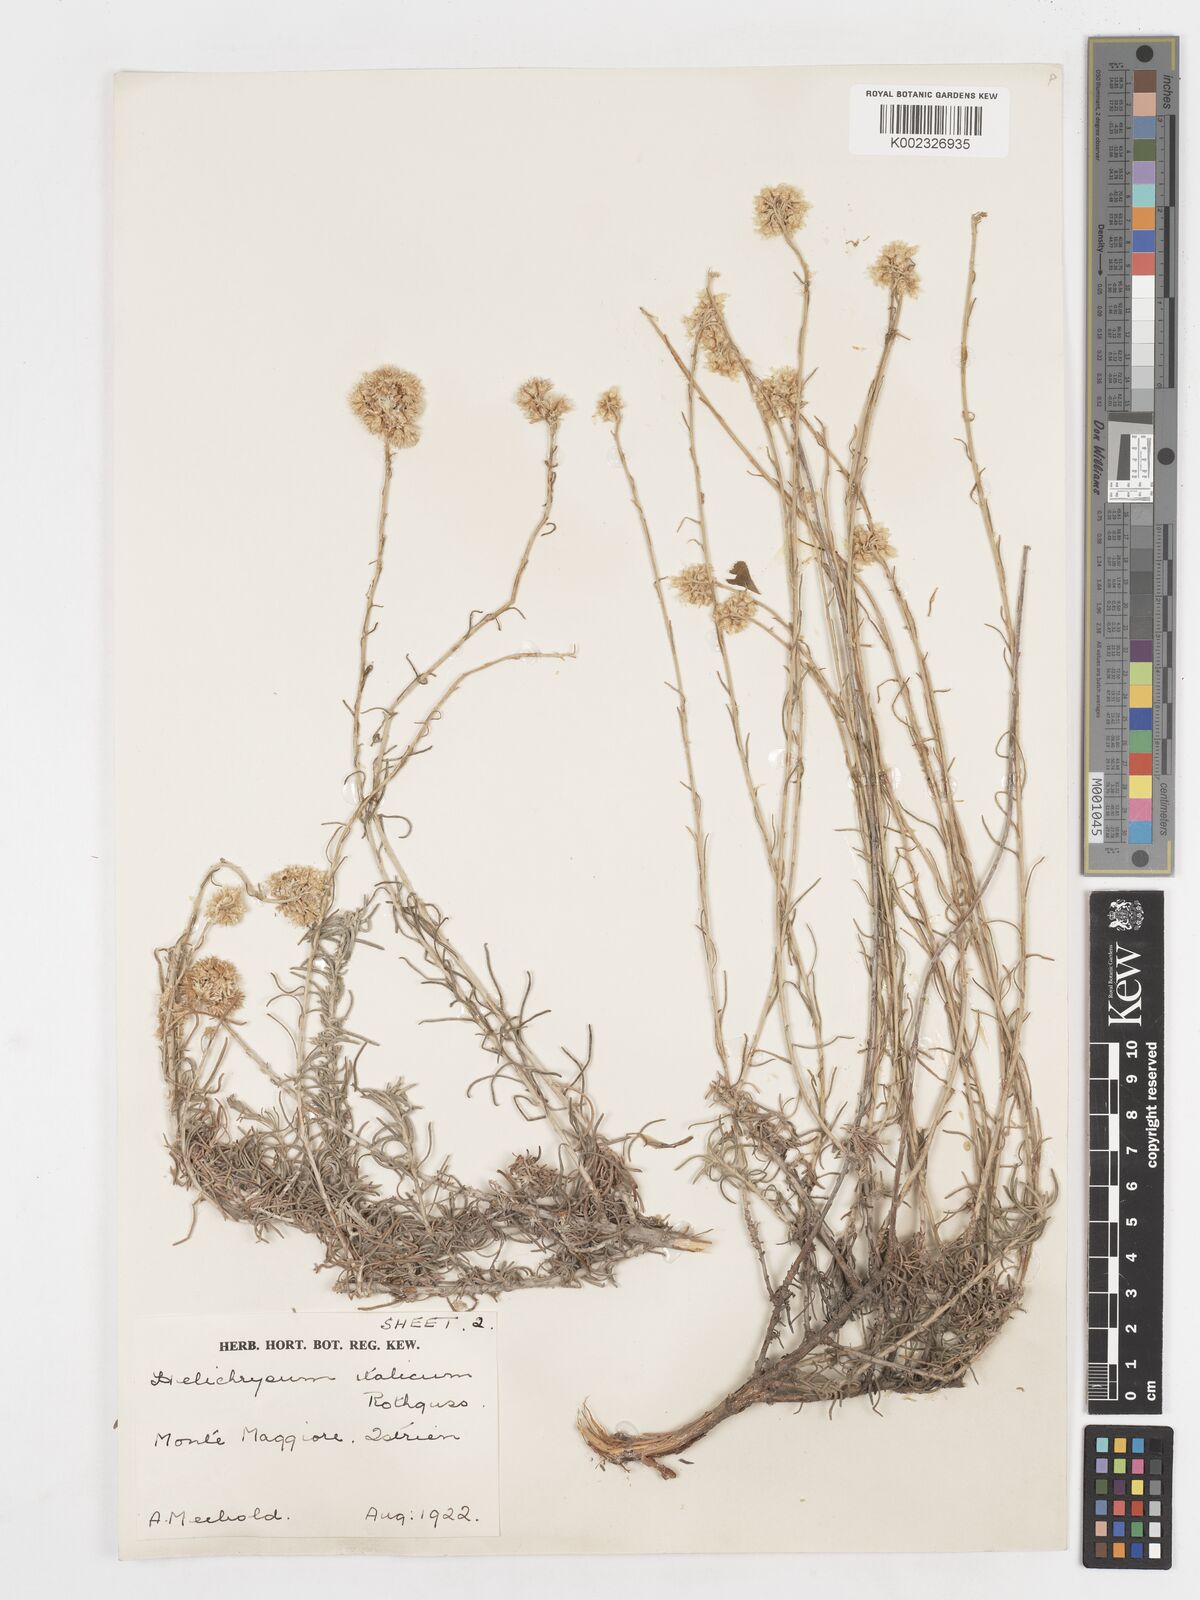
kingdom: Plantae
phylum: Tracheophyta
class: Magnoliopsida
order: Asterales
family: Asteraceae
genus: Helichrysum
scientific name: Helichrysum italicum
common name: Curryplant
